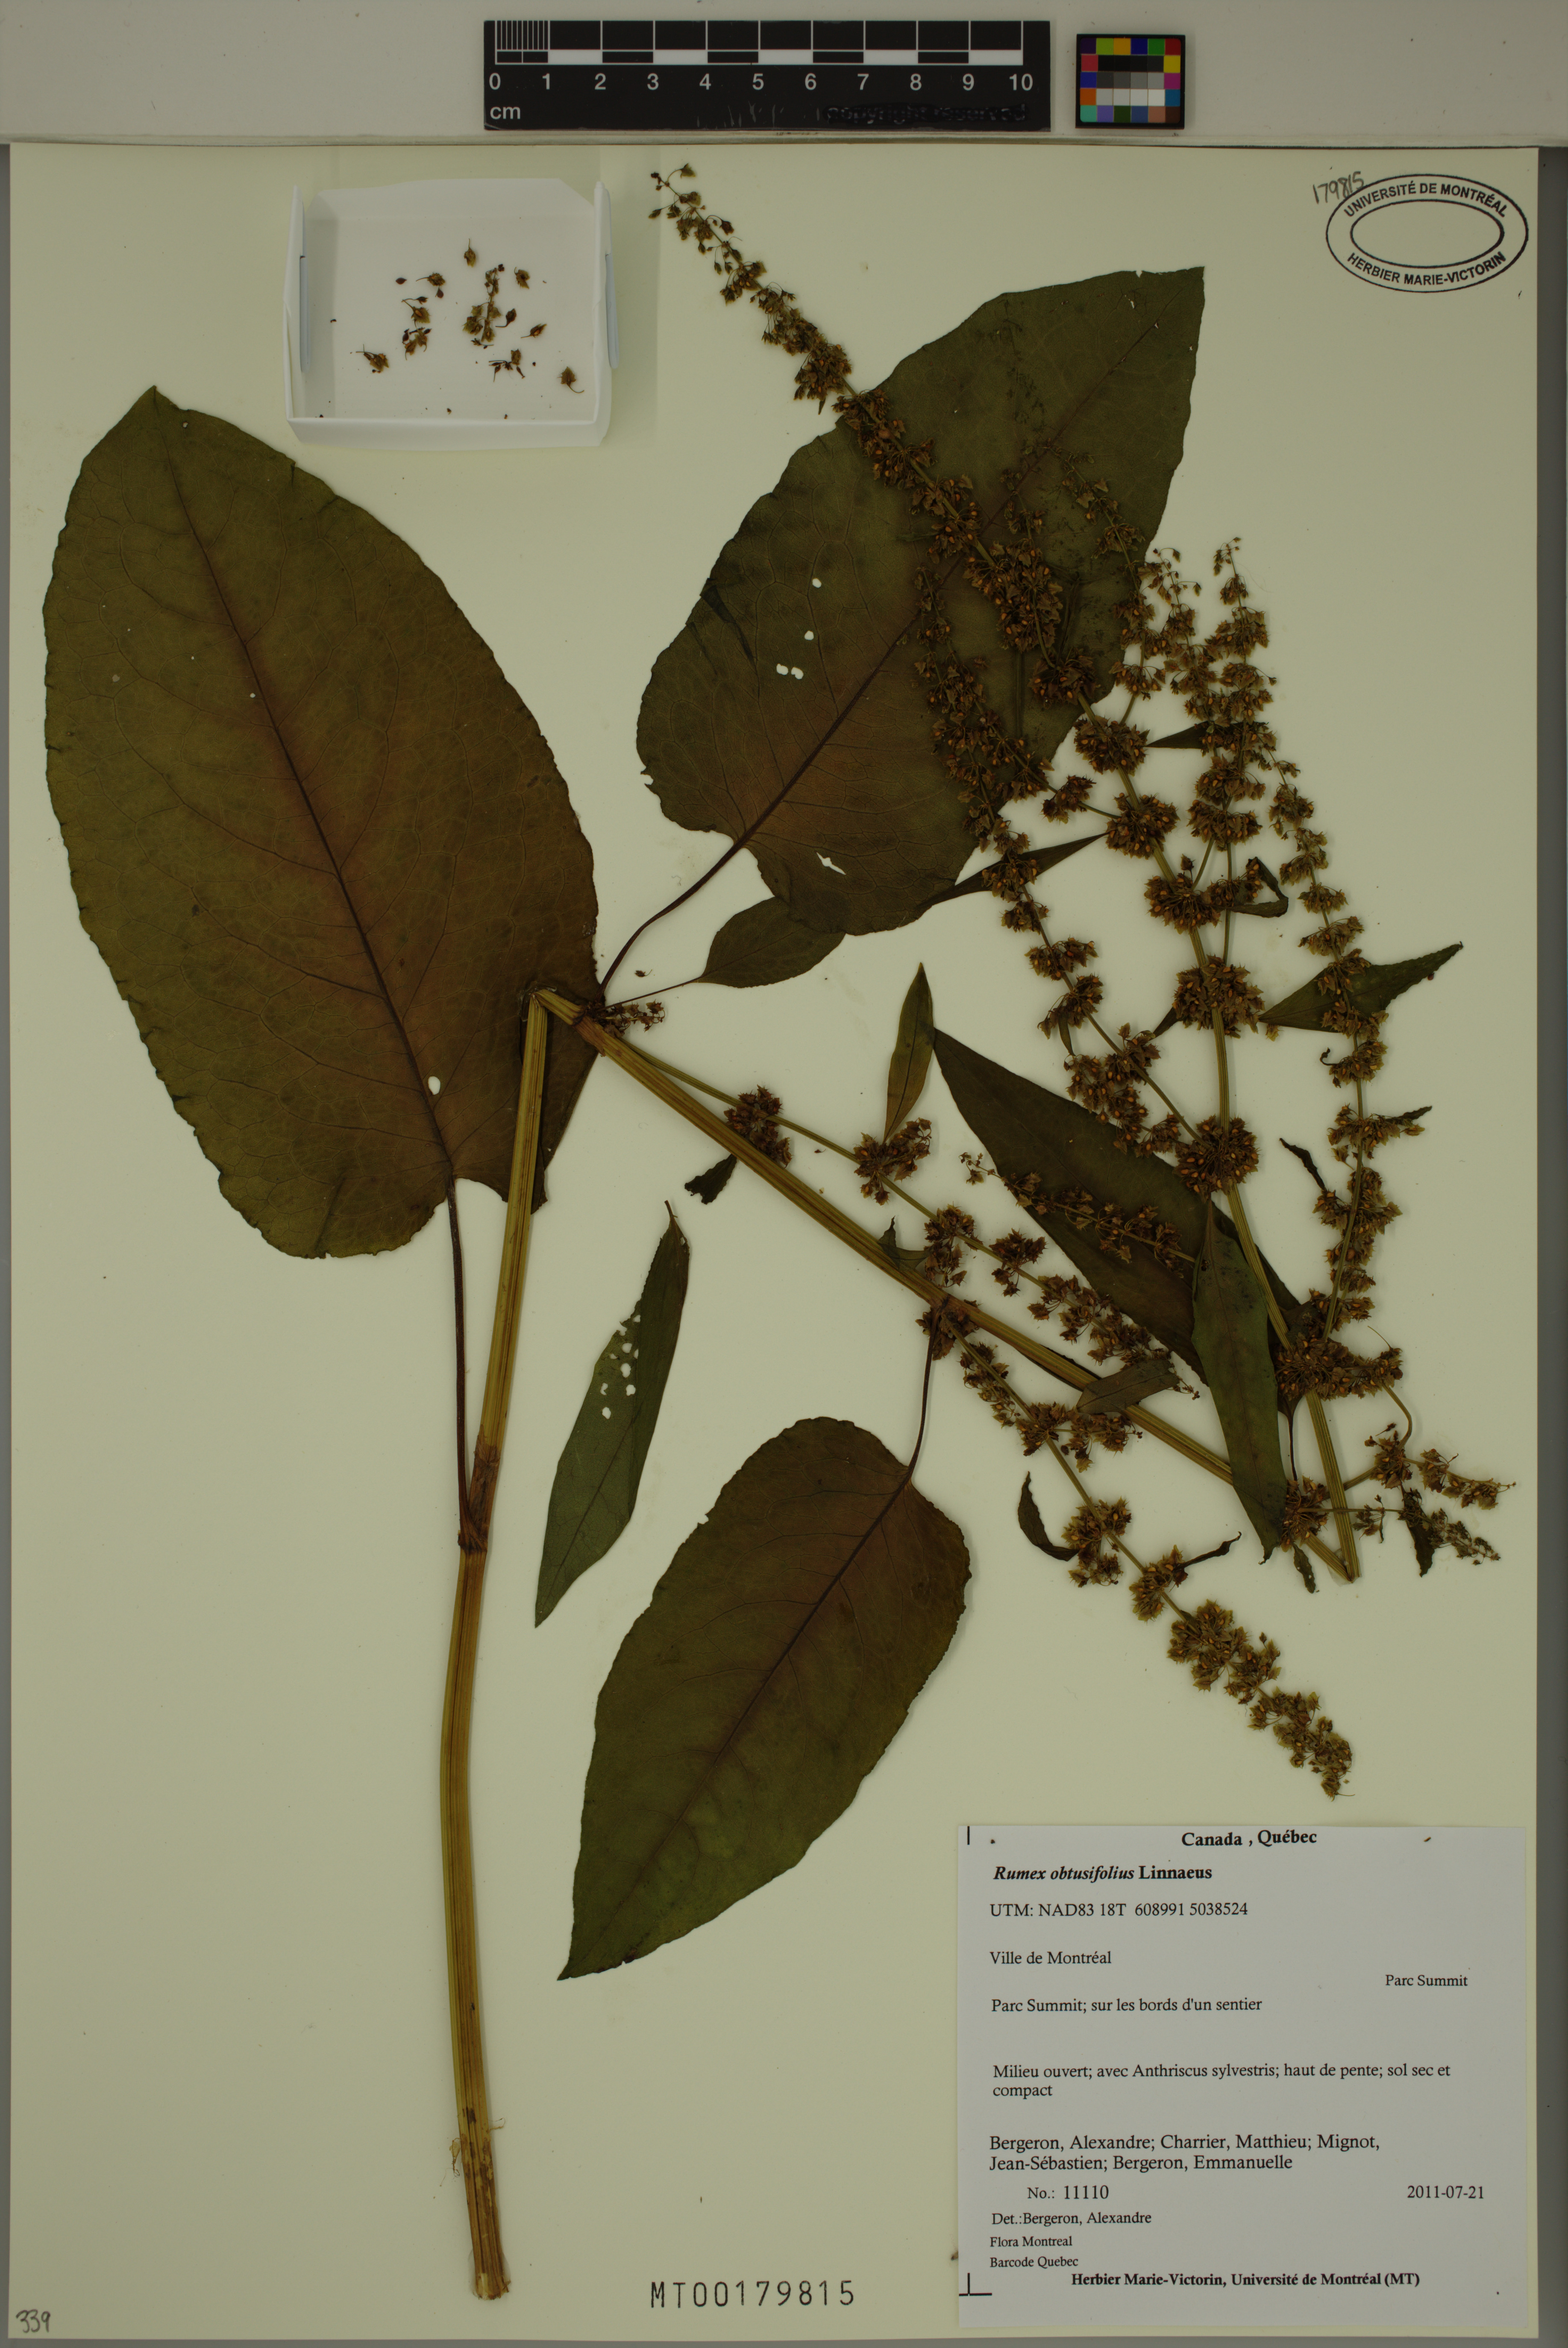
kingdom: Plantae
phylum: Tracheophyta
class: Magnoliopsida
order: Caryophyllales
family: Polygonaceae
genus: Rumex
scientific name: Rumex obtusifolius
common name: Bitter dock
